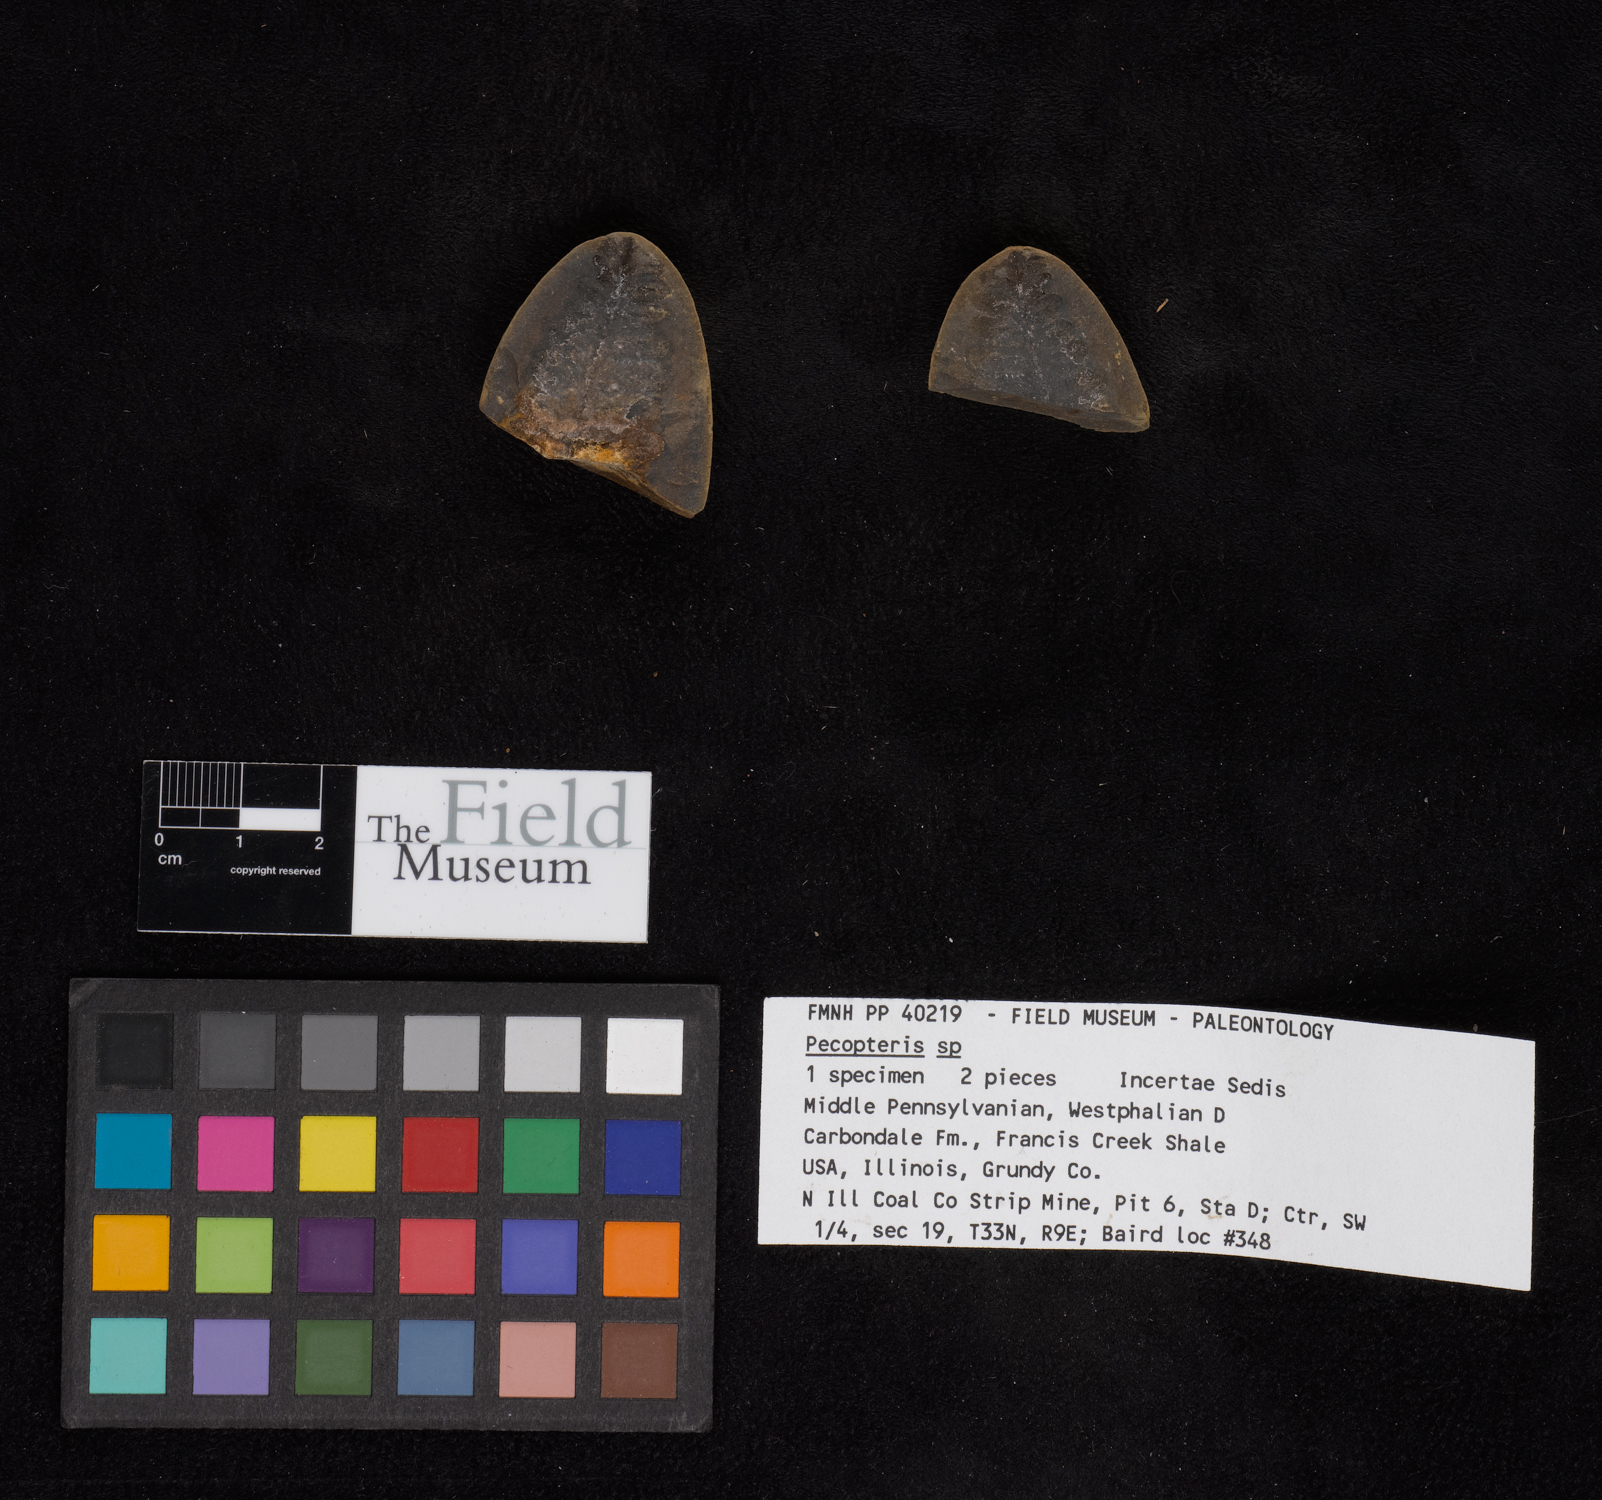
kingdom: Plantae
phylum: Tracheophyta
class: Polypodiopsida
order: Marattiales
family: Asterothecaceae
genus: Pecopteris
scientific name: Pecopteris
